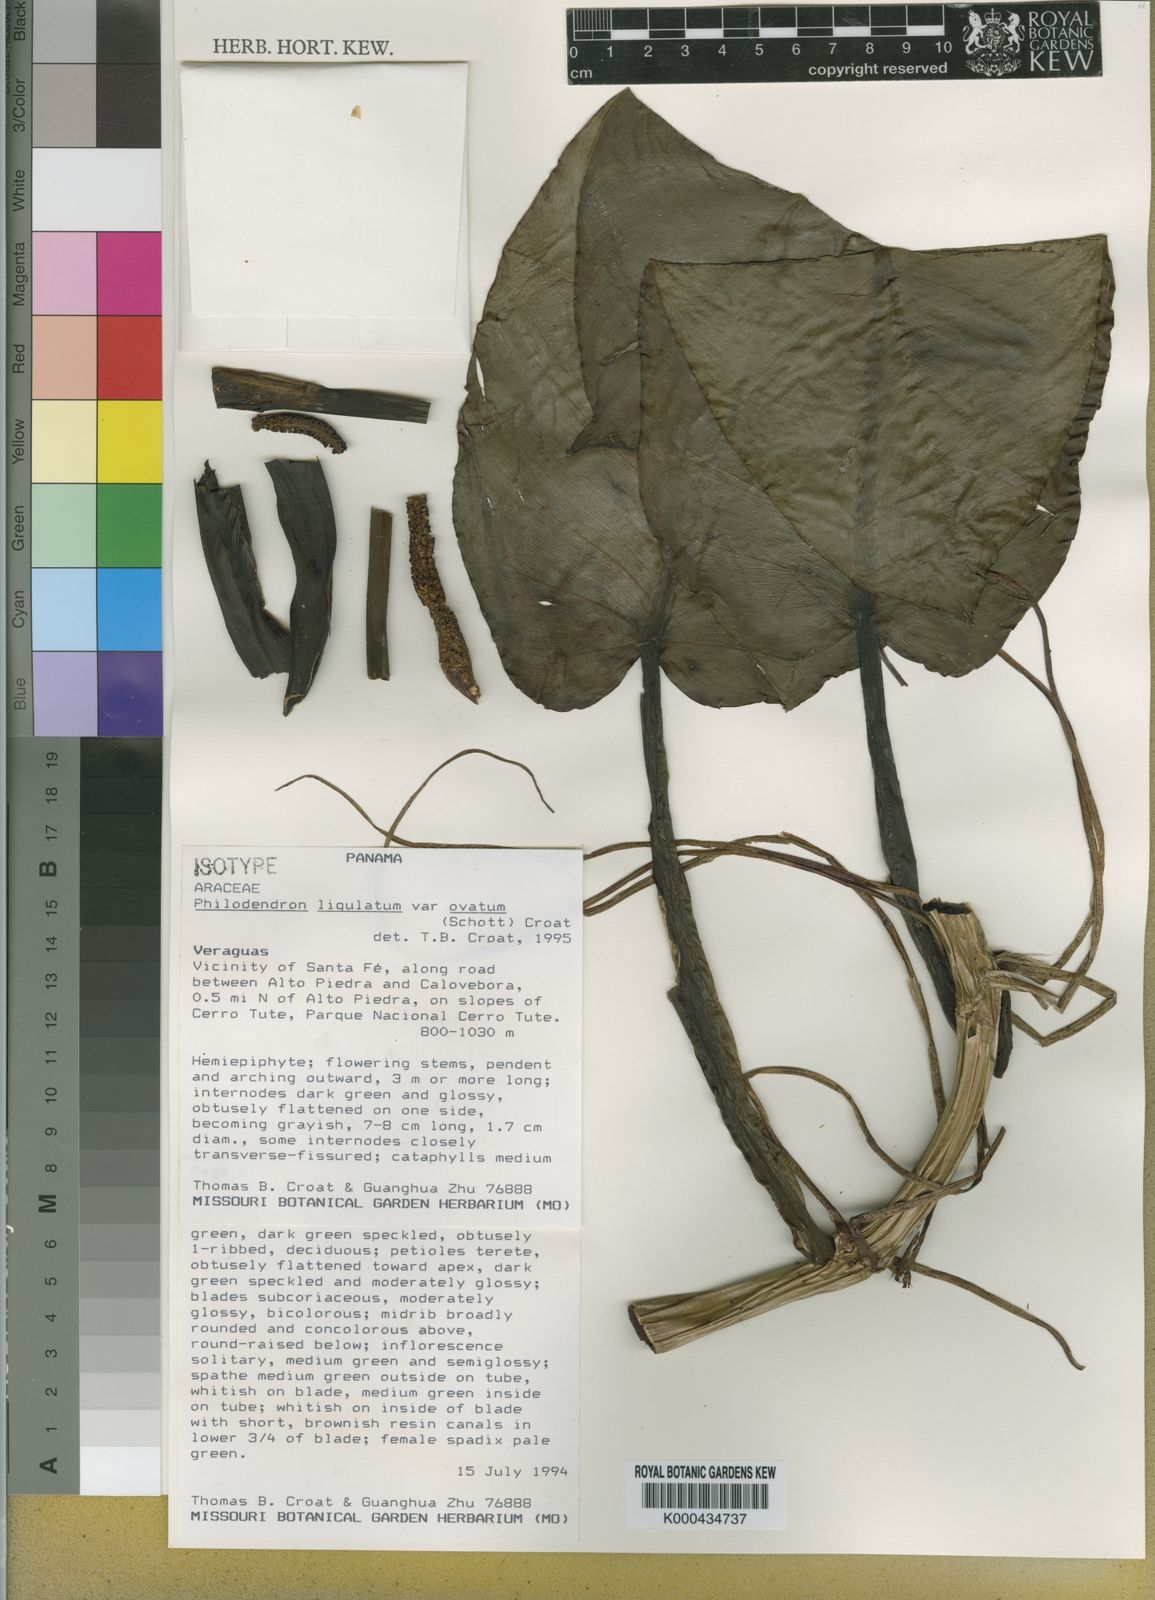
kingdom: Plantae
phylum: Tracheophyta
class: Liliopsida
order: Alismatales
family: Araceae
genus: Philodendron
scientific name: Philodendron ligulatum
